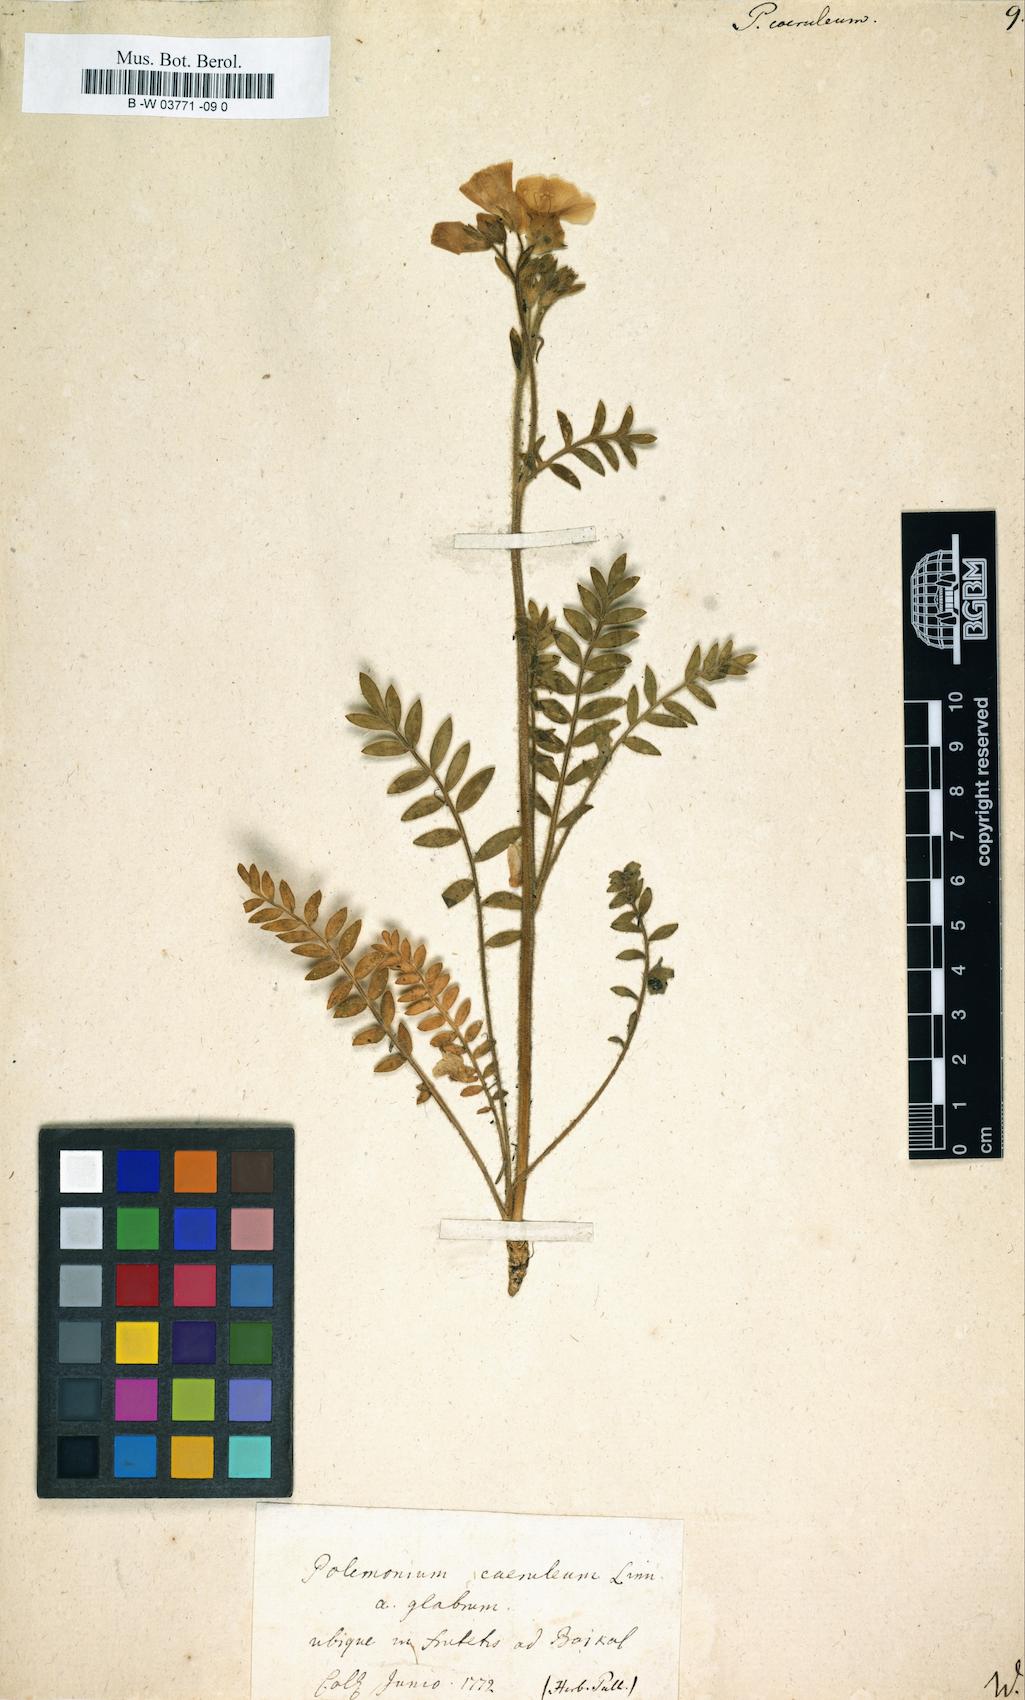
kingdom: Plantae
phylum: Tracheophyta
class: Magnoliopsida
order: Ericales
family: Polemoniaceae
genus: Polemonium
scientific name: Polemonium caeruleum
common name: Jacob's-ladder
